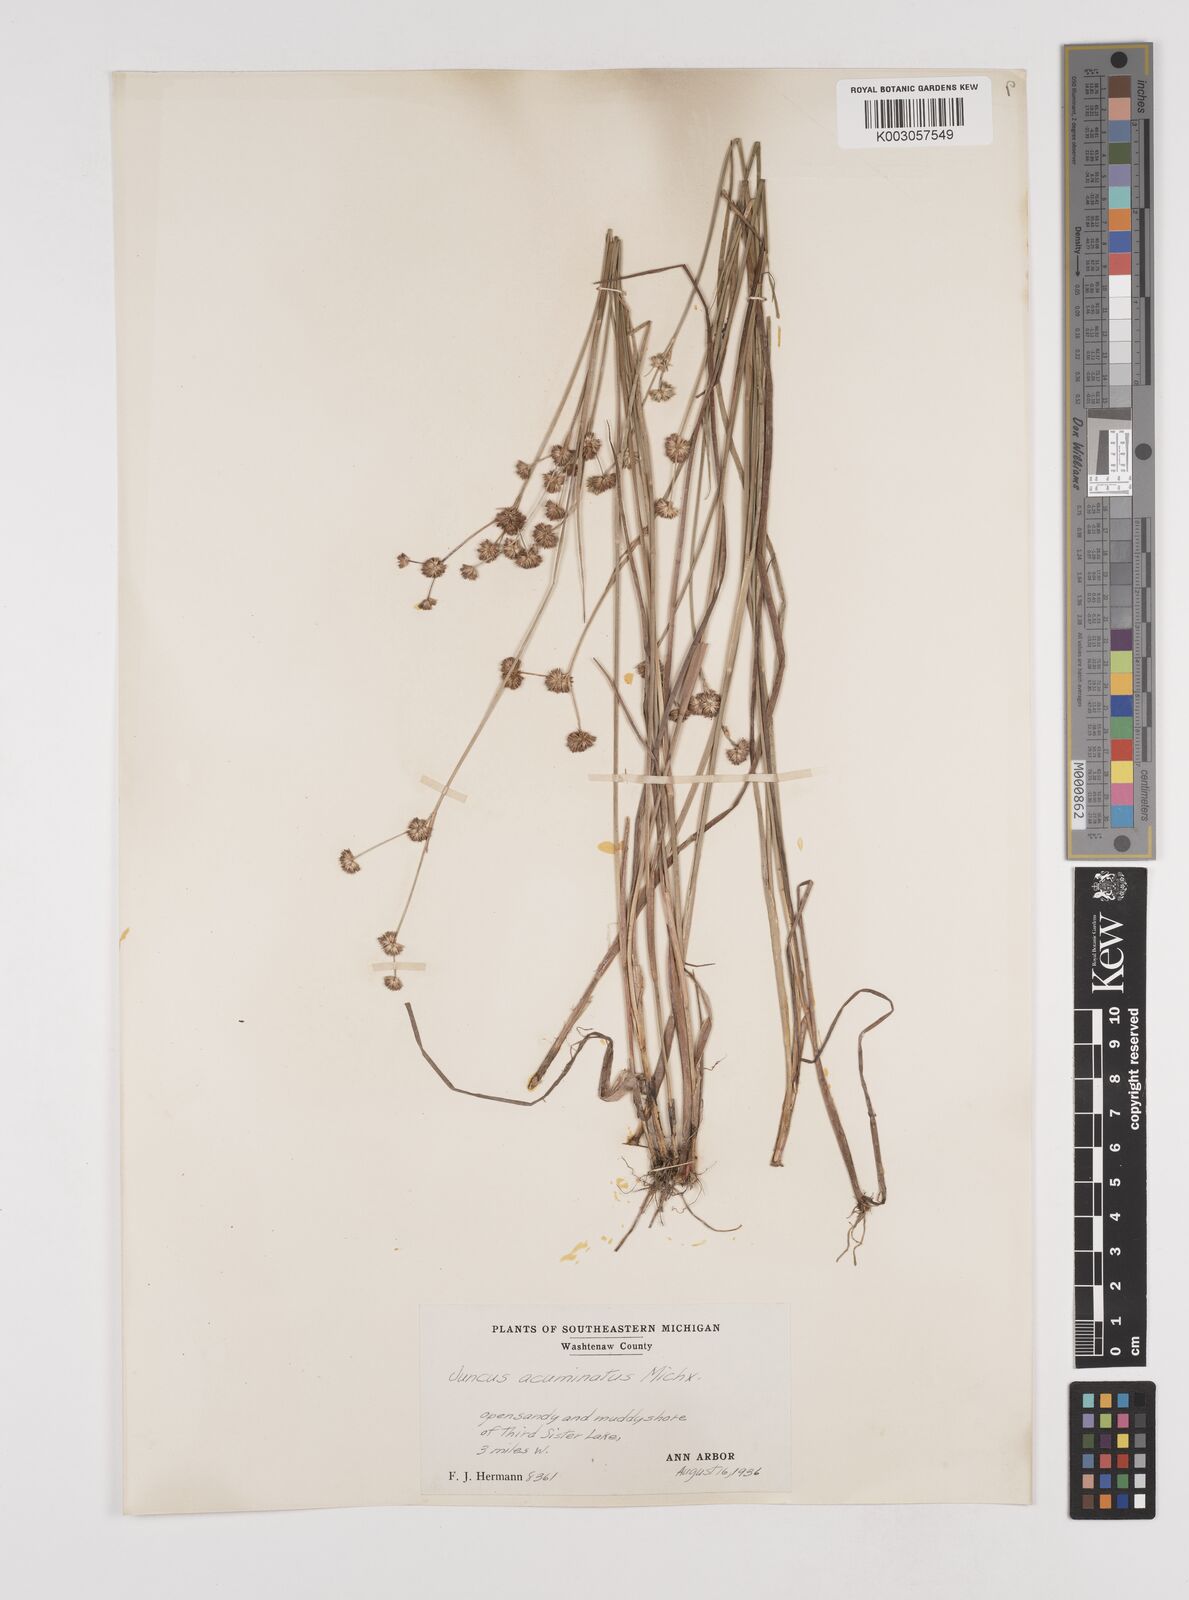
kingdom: Plantae
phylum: Tracheophyta
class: Liliopsida
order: Poales
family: Juncaceae
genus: Juncus
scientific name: Juncus acuminatus
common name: Knotty-leaved rush
